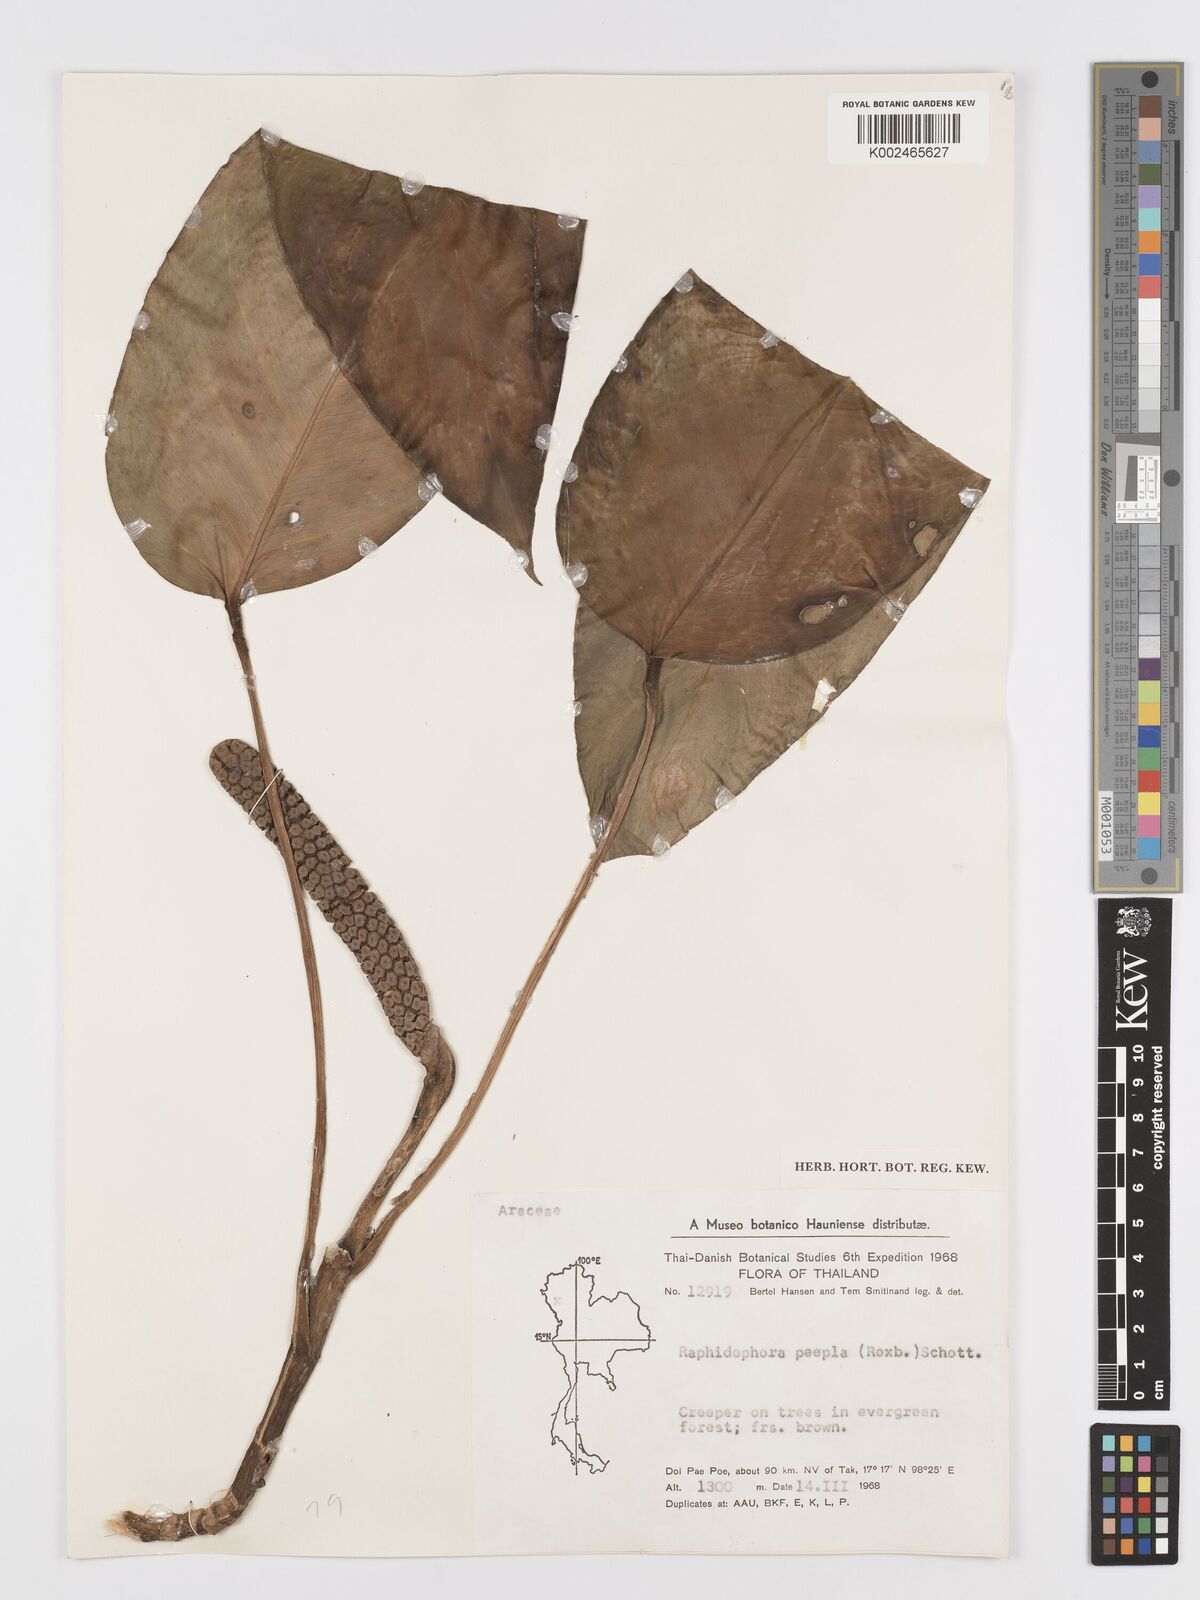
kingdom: Plantae
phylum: Tracheophyta
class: Liliopsida
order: Alismatales
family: Araceae
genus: Rhaphidophora
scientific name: Rhaphidophora peepla
